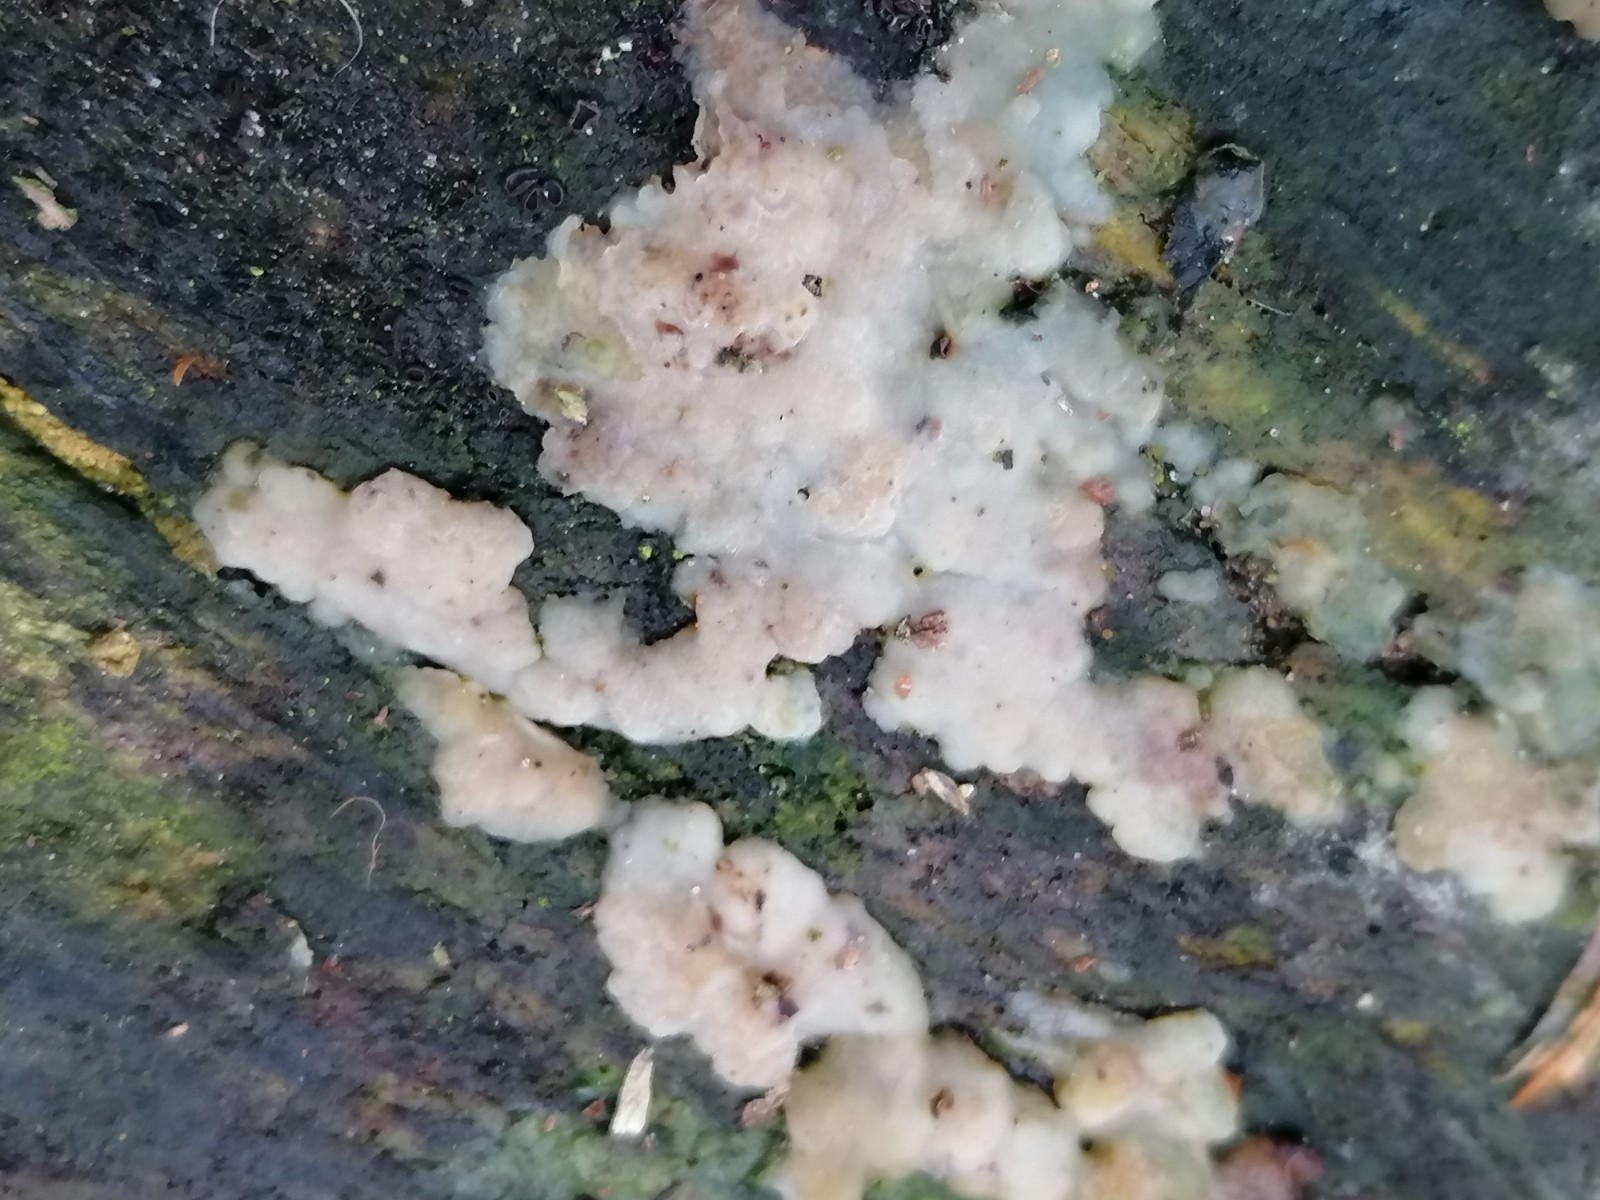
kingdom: Fungi
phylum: Basidiomycota
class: Agaricomycetes
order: Corticiales
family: Corticiaceae
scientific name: Corticiaceae
